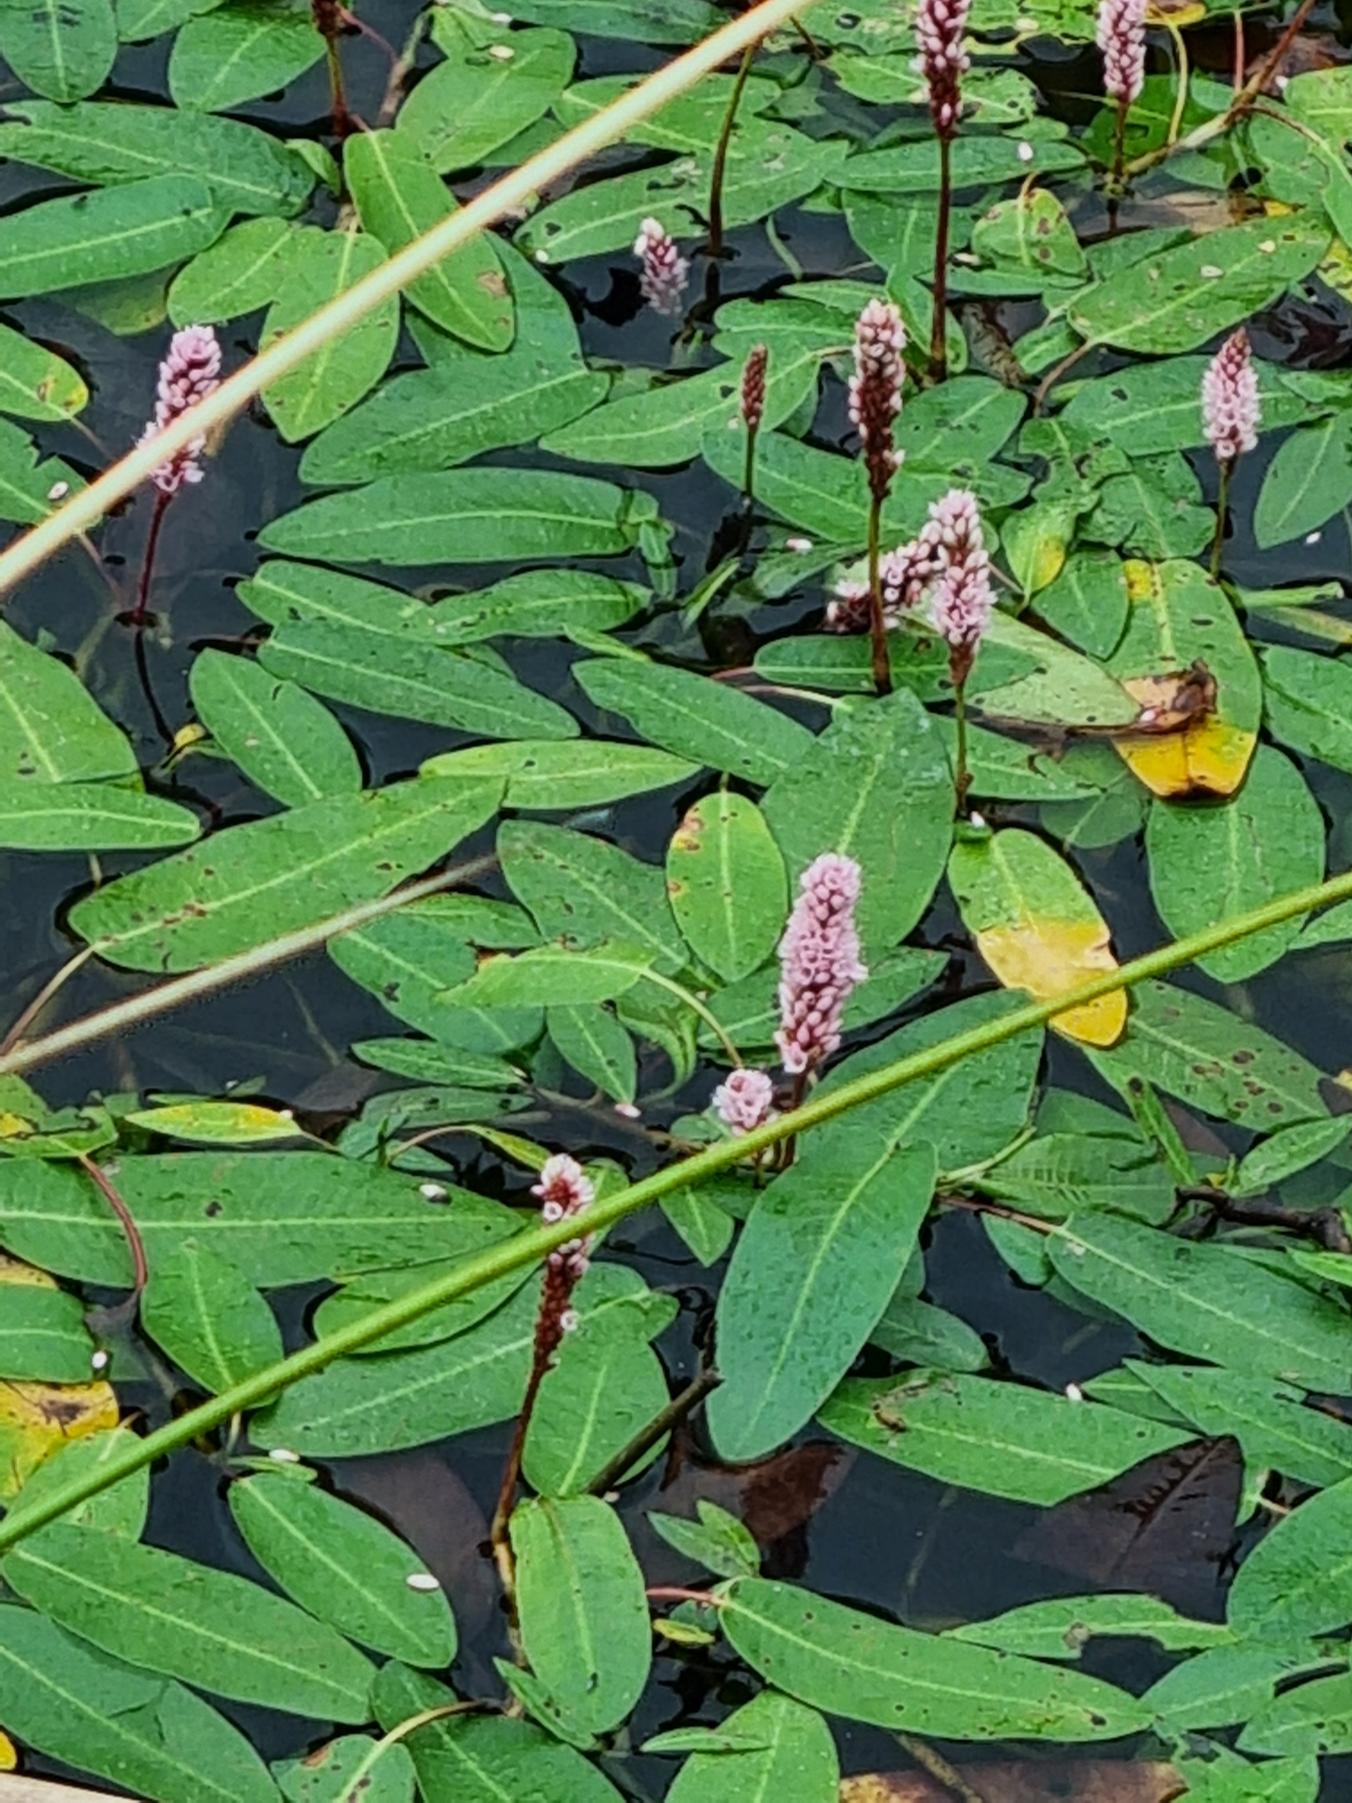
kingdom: Plantae
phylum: Tracheophyta
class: Magnoliopsida
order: Caryophyllales
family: Polygonaceae
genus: Persicaria
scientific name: Persicaria amphibia
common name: Vand-pileurt
